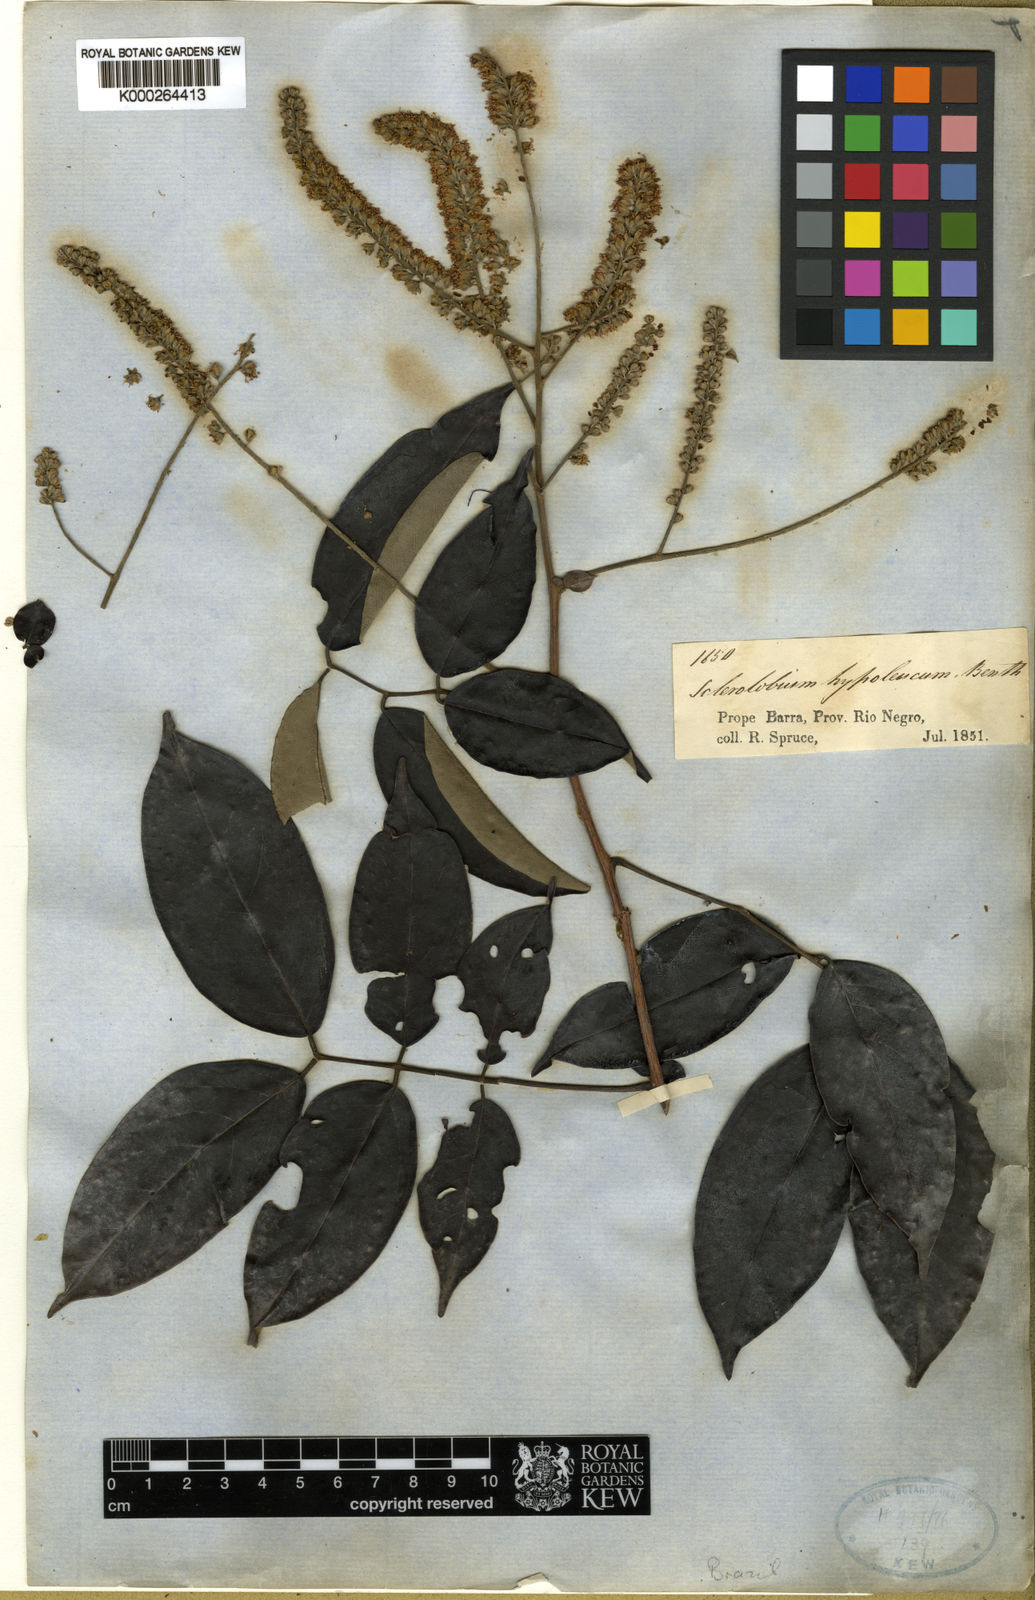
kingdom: Plantae
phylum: Tracheophyta
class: Magnoliopsida
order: Fabales
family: Fabaceae
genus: Tachigali
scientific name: Tachigali hypoleuca
